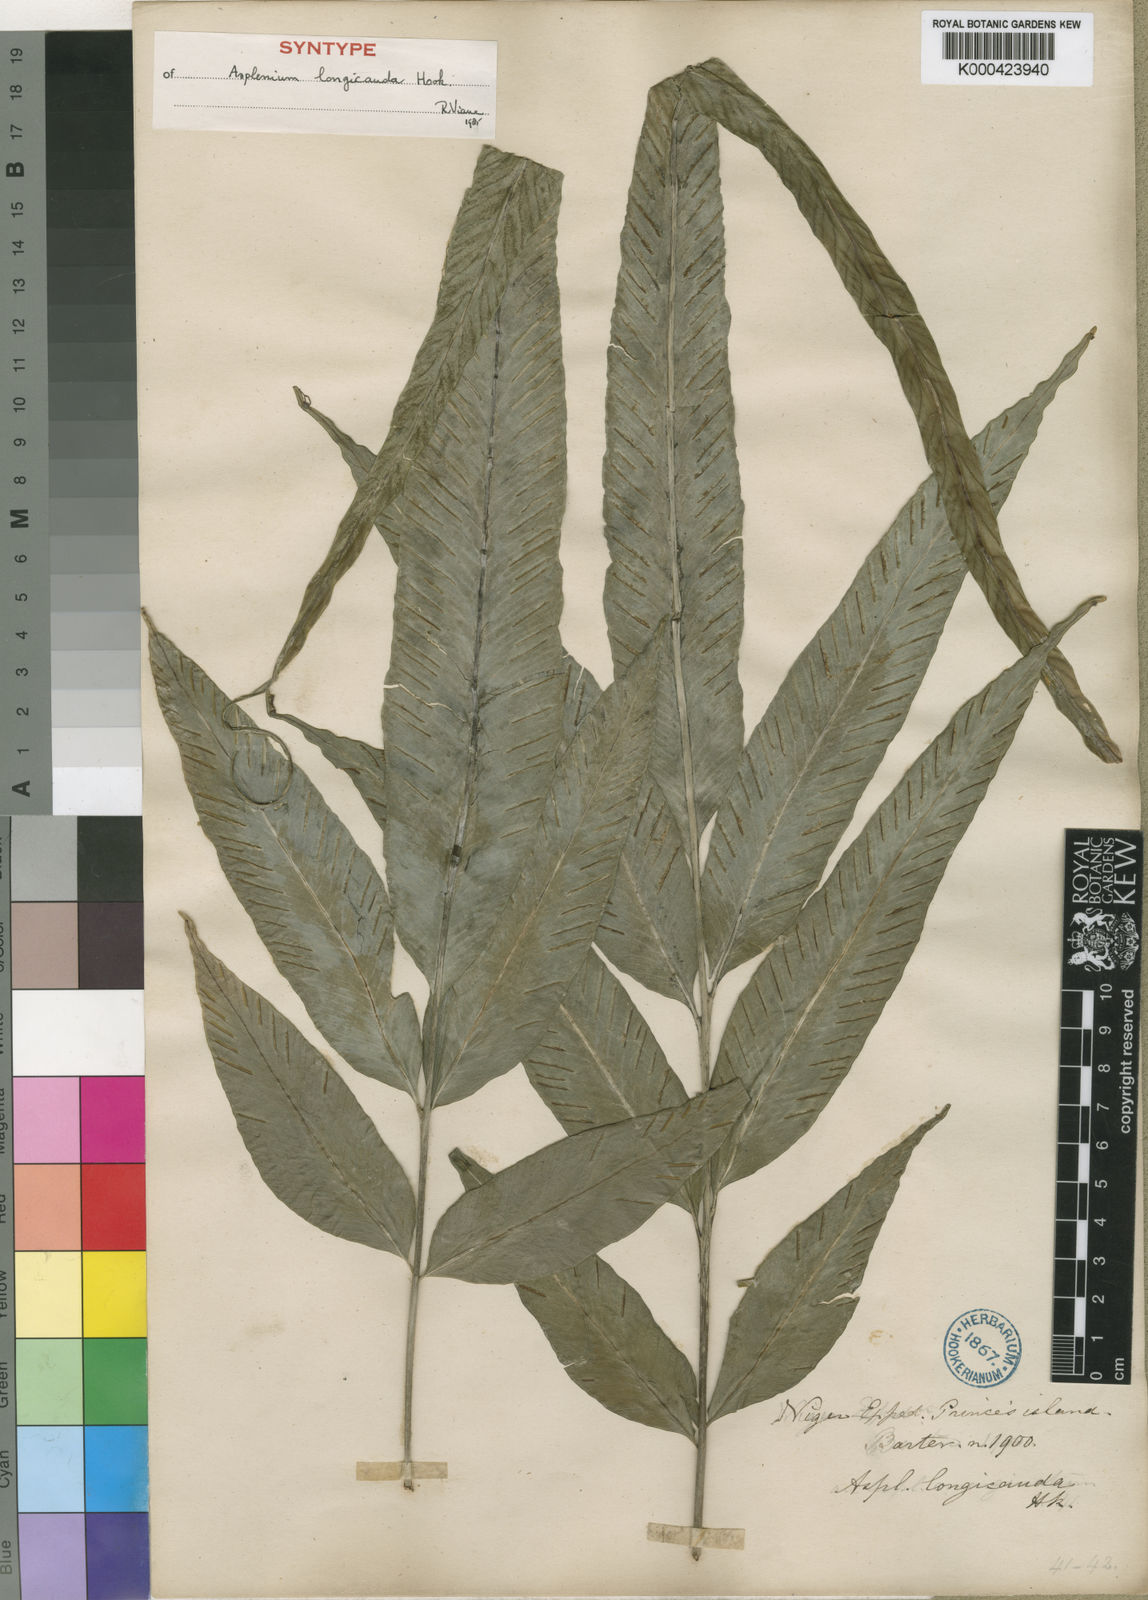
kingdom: Plantae
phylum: Tracheophyta
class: Polypodiopsida
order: Polypodiales
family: Aspleniaceae
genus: Asplenium
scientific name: Asplenium longicauda
